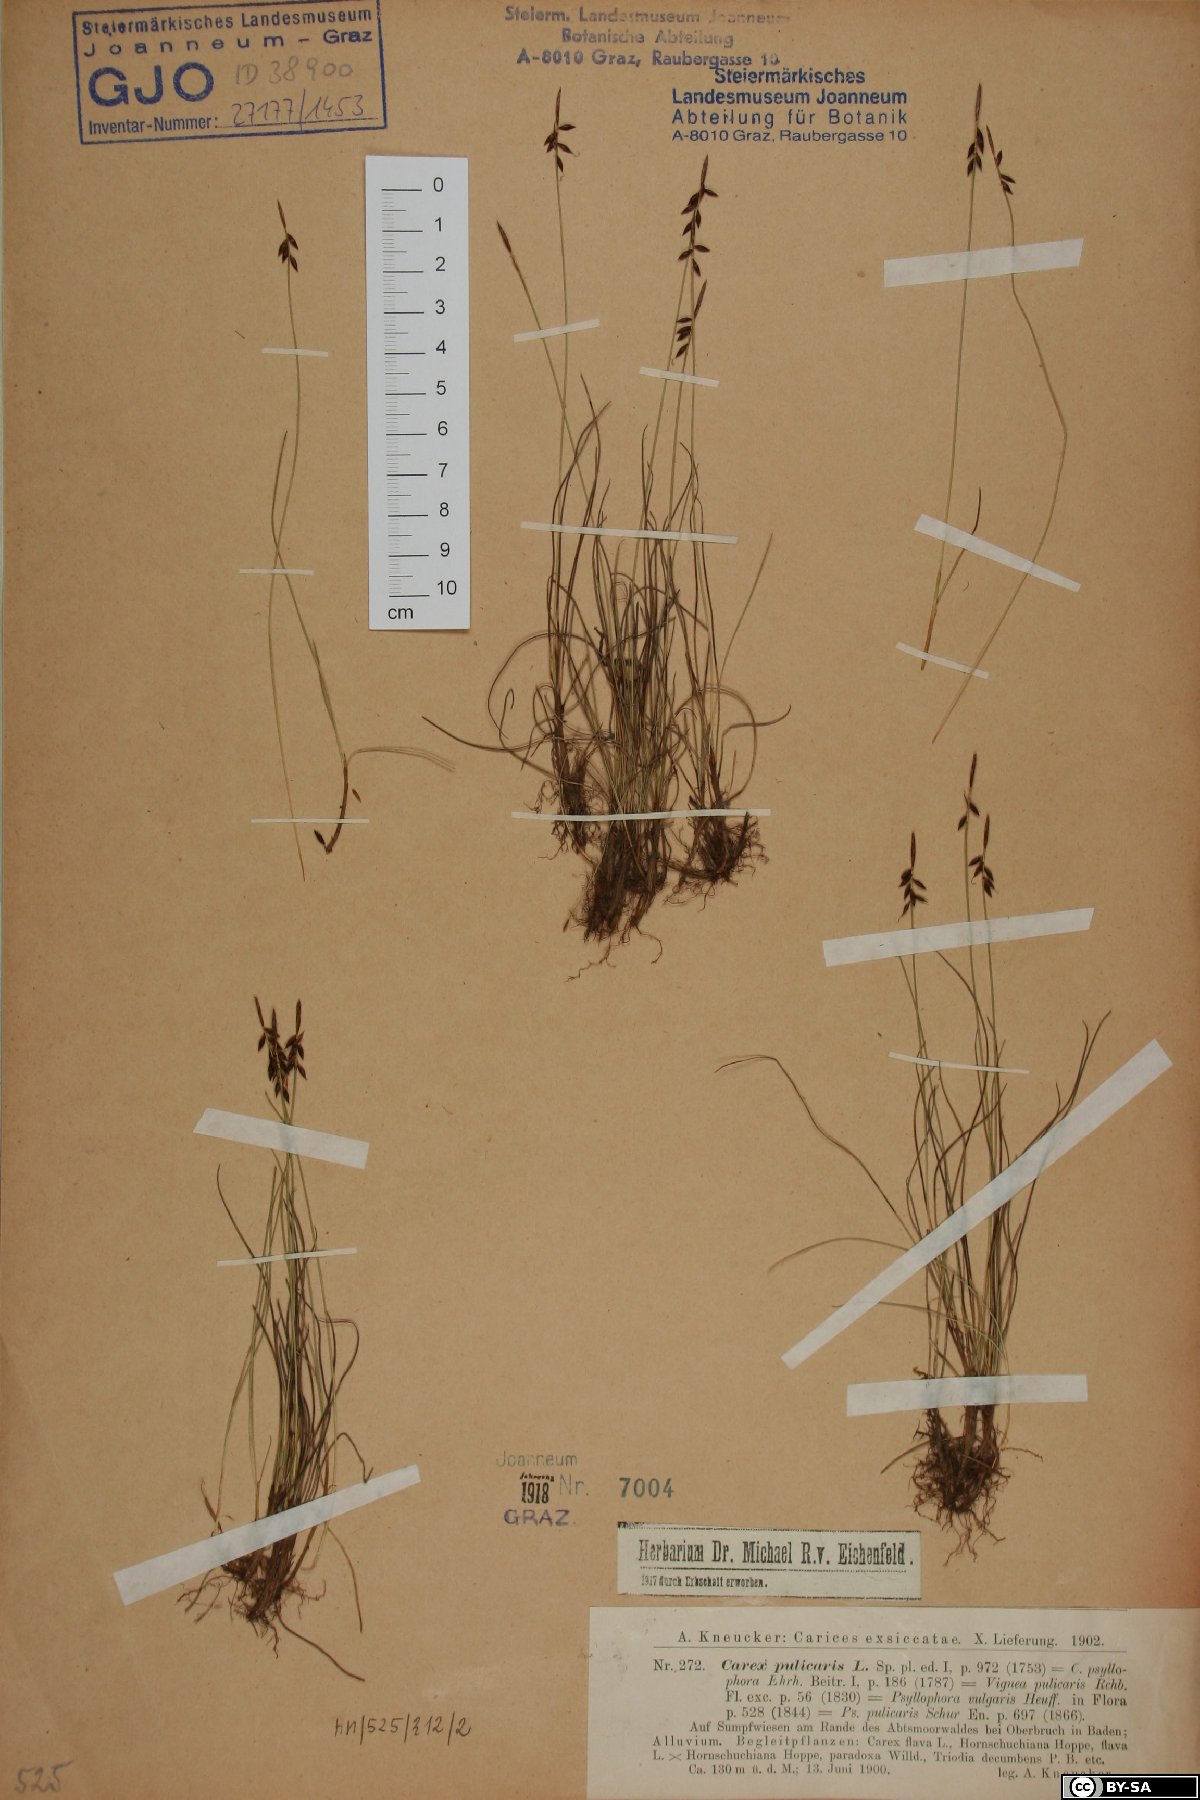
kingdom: Plantae
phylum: Tracheophyta
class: Liliopsida
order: Poales
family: Cyperaceae
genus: Carex
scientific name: Carex pulicaris
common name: Flea sedge
